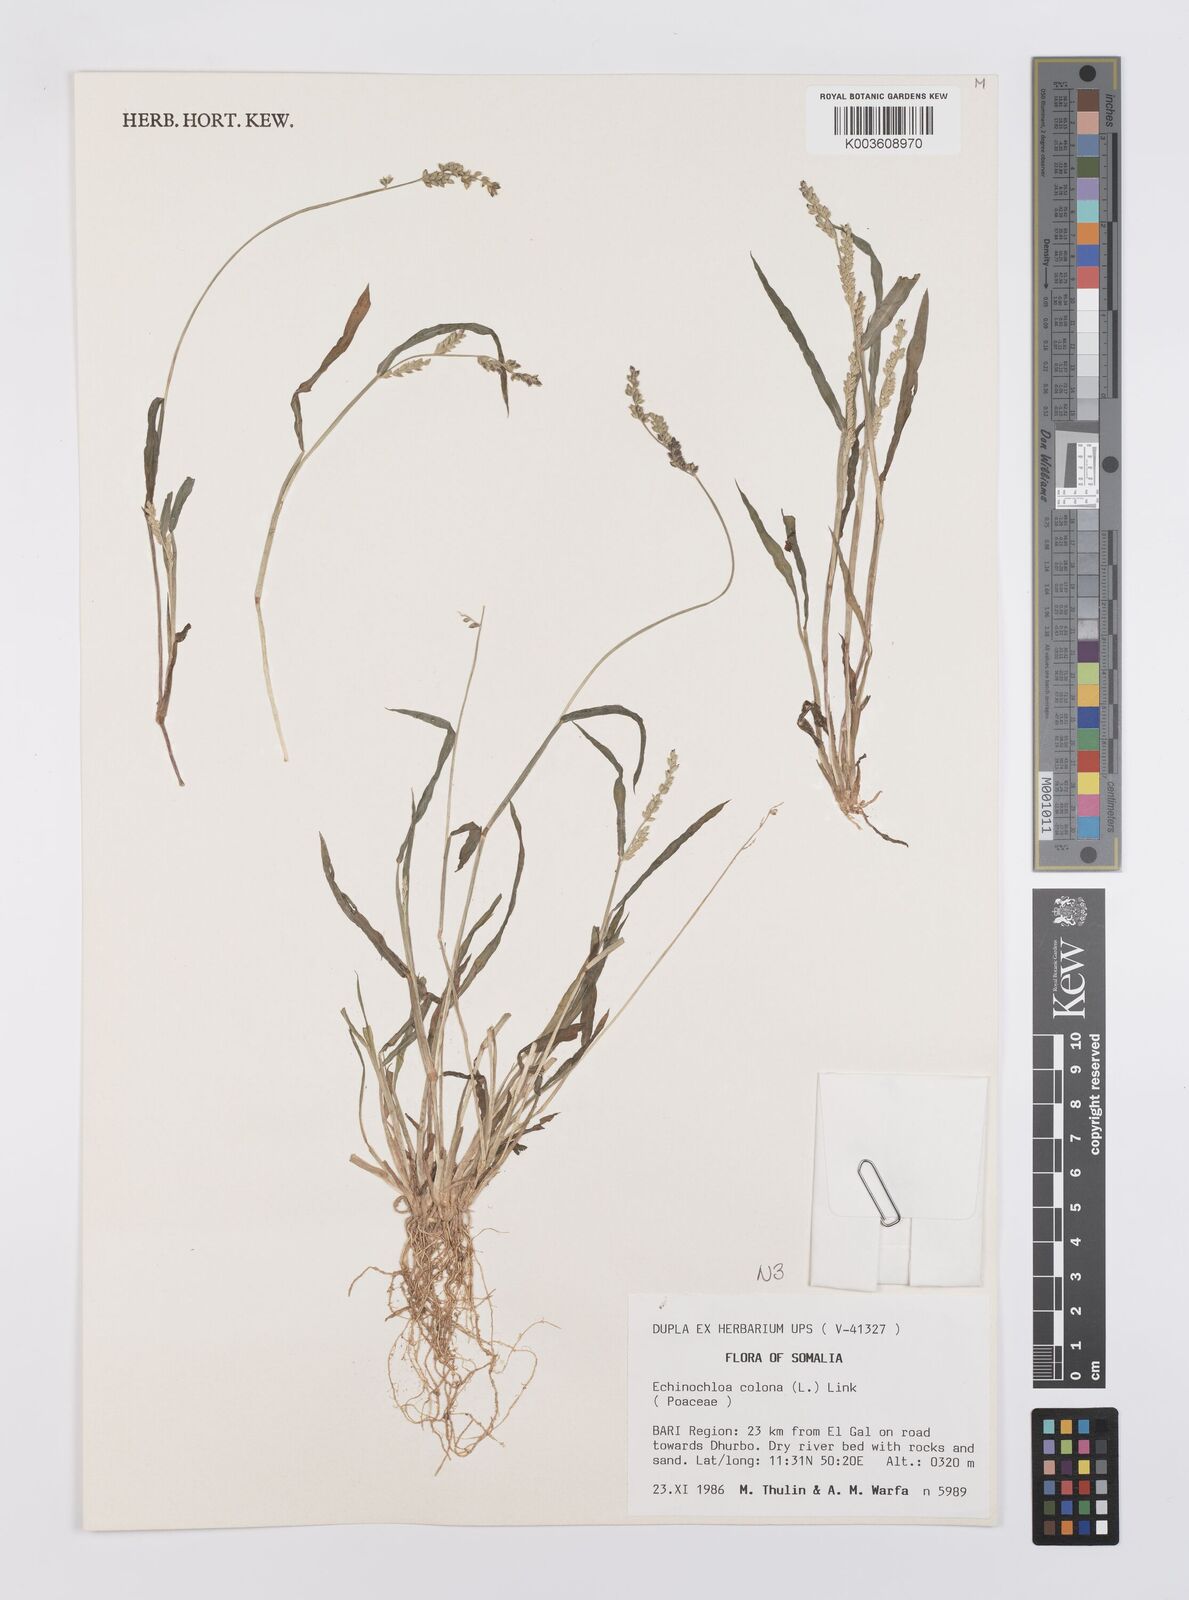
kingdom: Plantae
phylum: Tracheophyta
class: Liliopsida
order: Poales
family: Poaceae
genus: Echinochloa
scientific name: Echinochloa colonum
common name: Jungle rice
